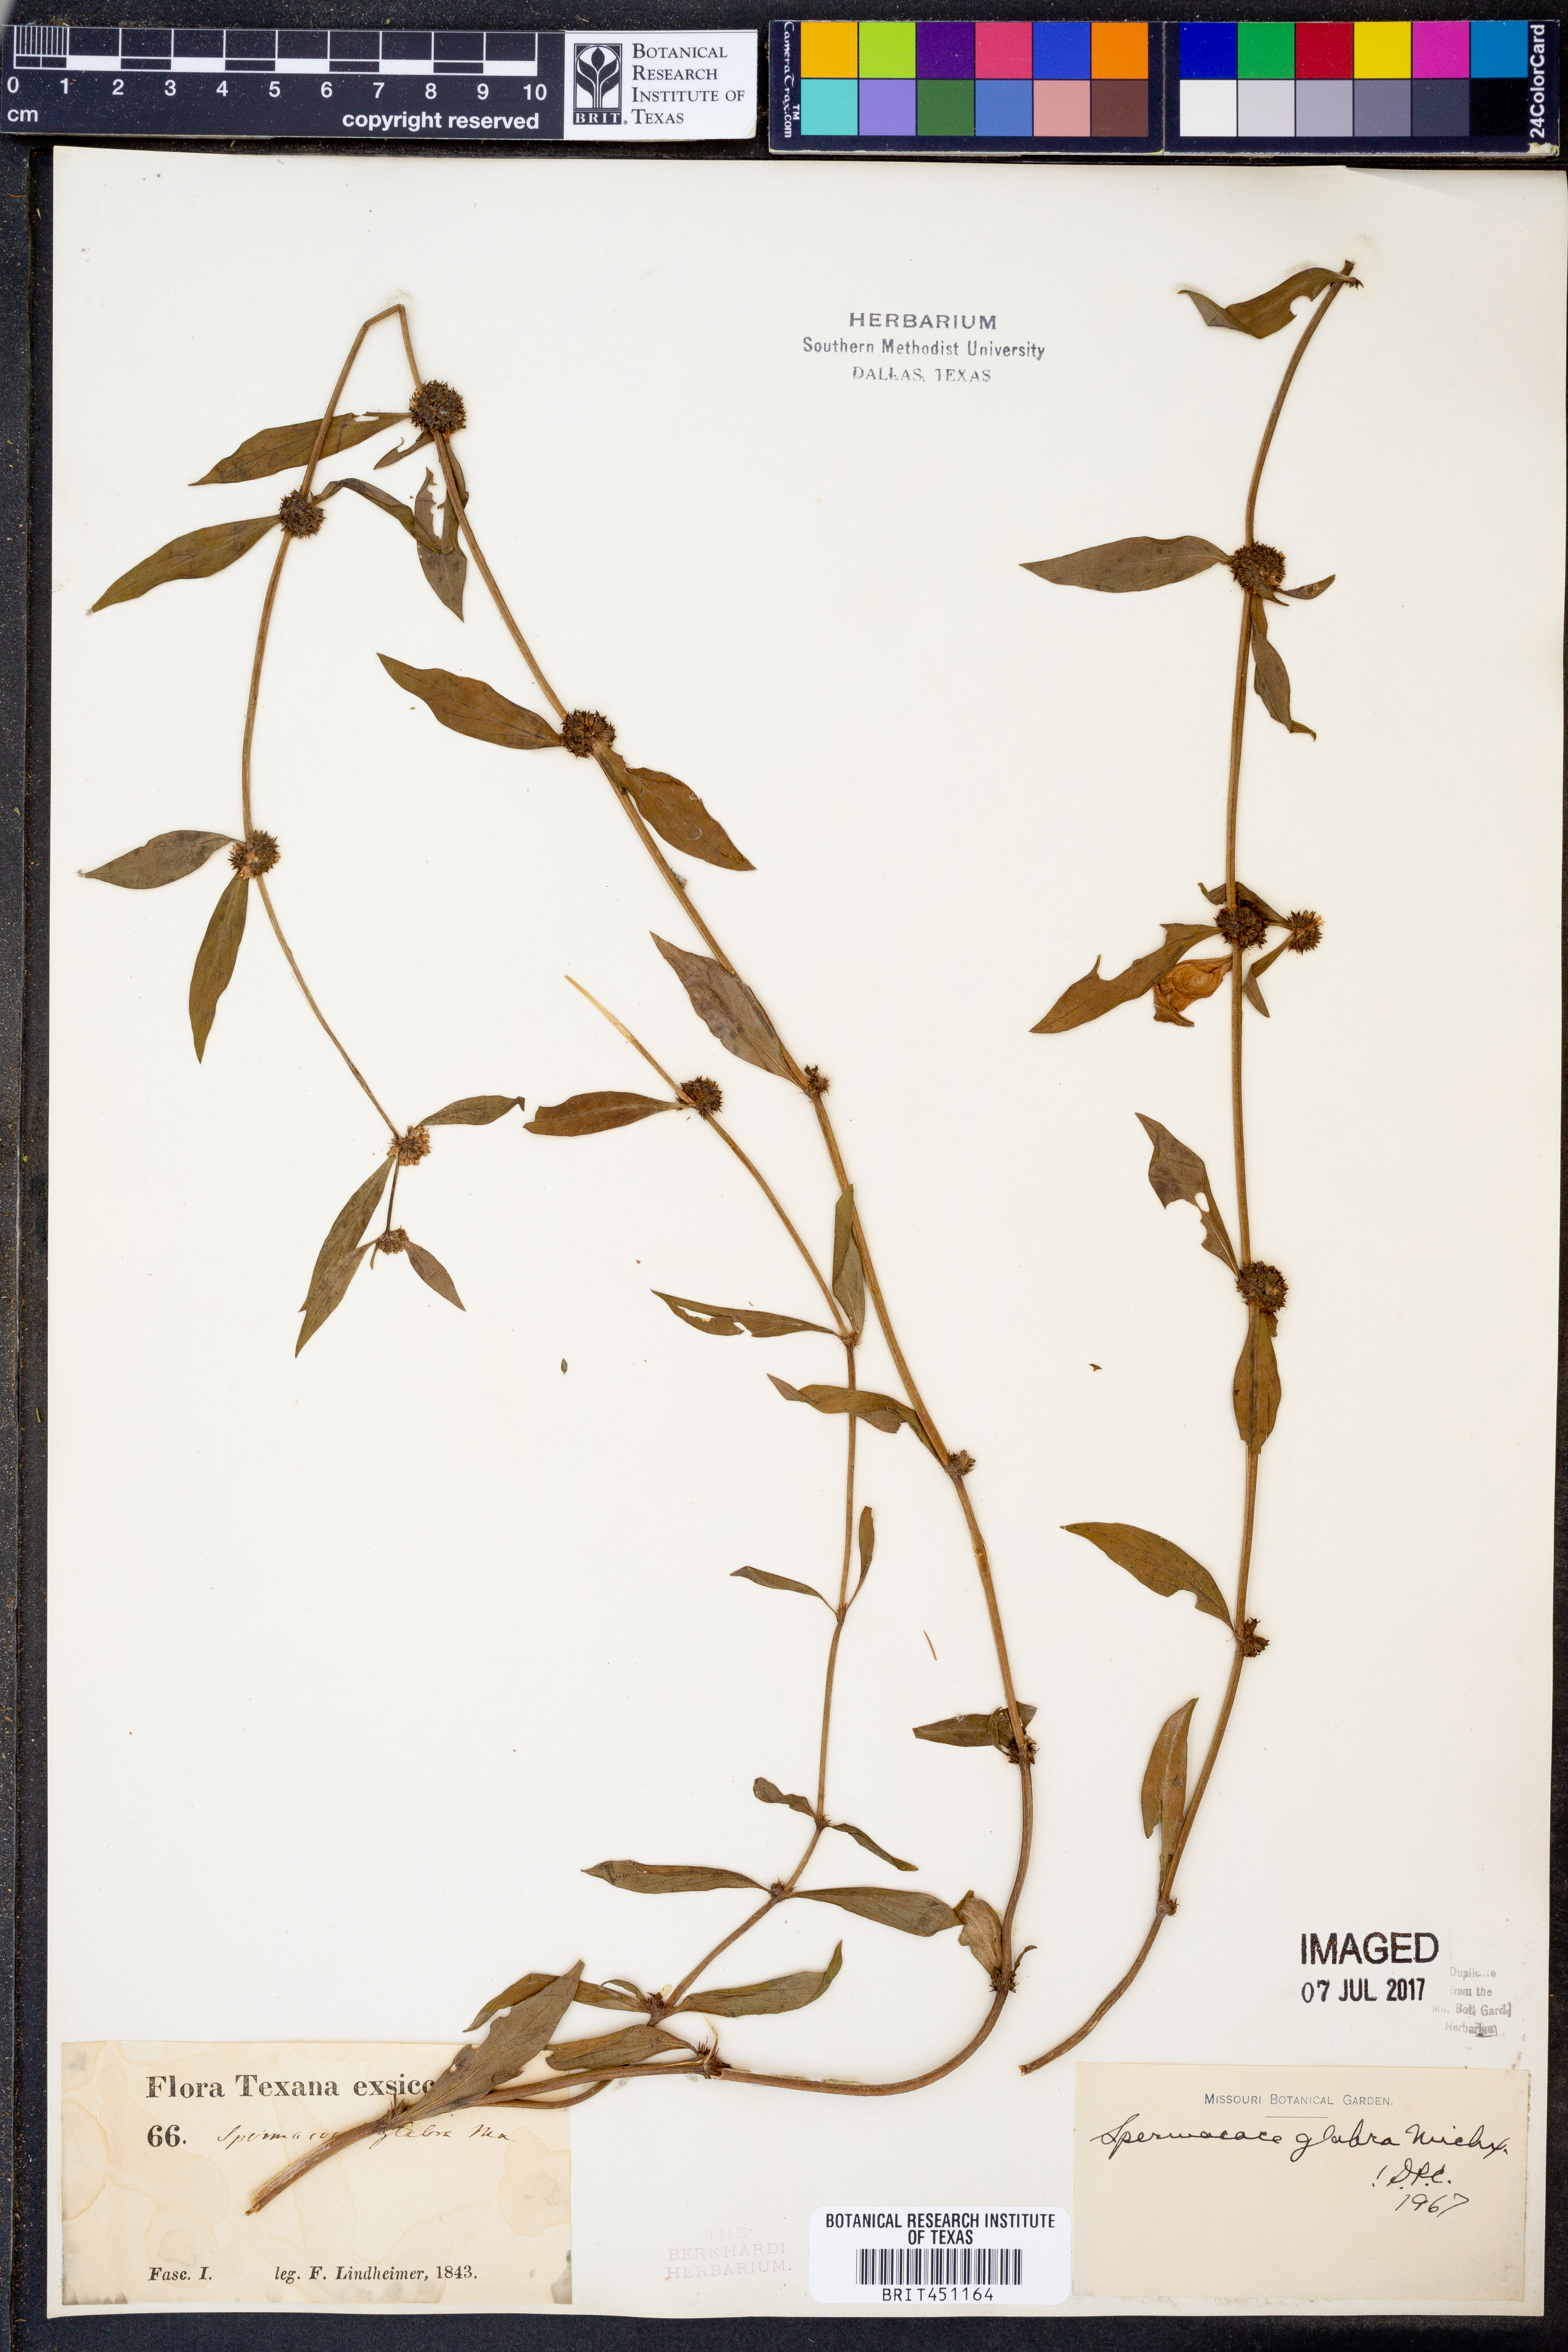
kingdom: Plantae
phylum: Tracheophyta
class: Magnoliopsida
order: Gentianales
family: Rubiaceae
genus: Spermacoce
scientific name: Spermacoce glabra
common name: Smooth buttonweed
